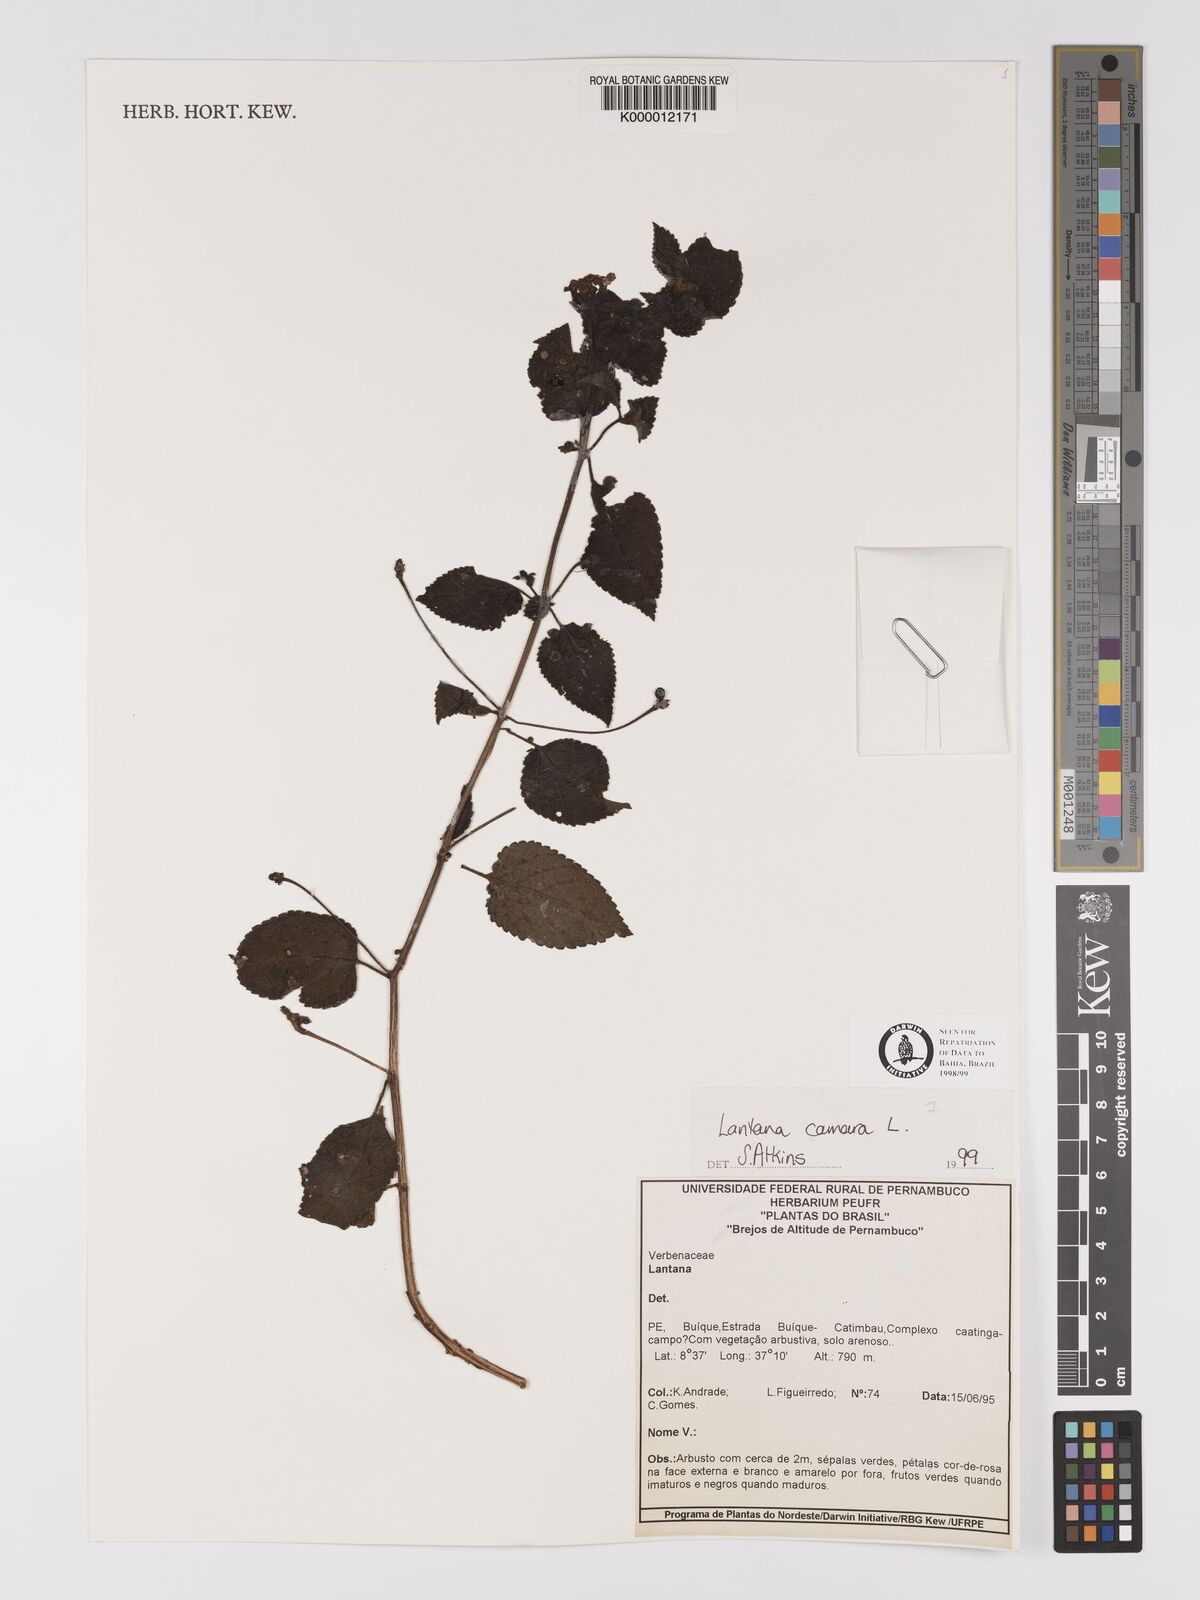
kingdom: Plantae
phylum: Tracheophyta
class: Magnoliopsida
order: Lamiales
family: Verbenaceae
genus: Lantana
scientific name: Lantana camara
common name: Lantana
